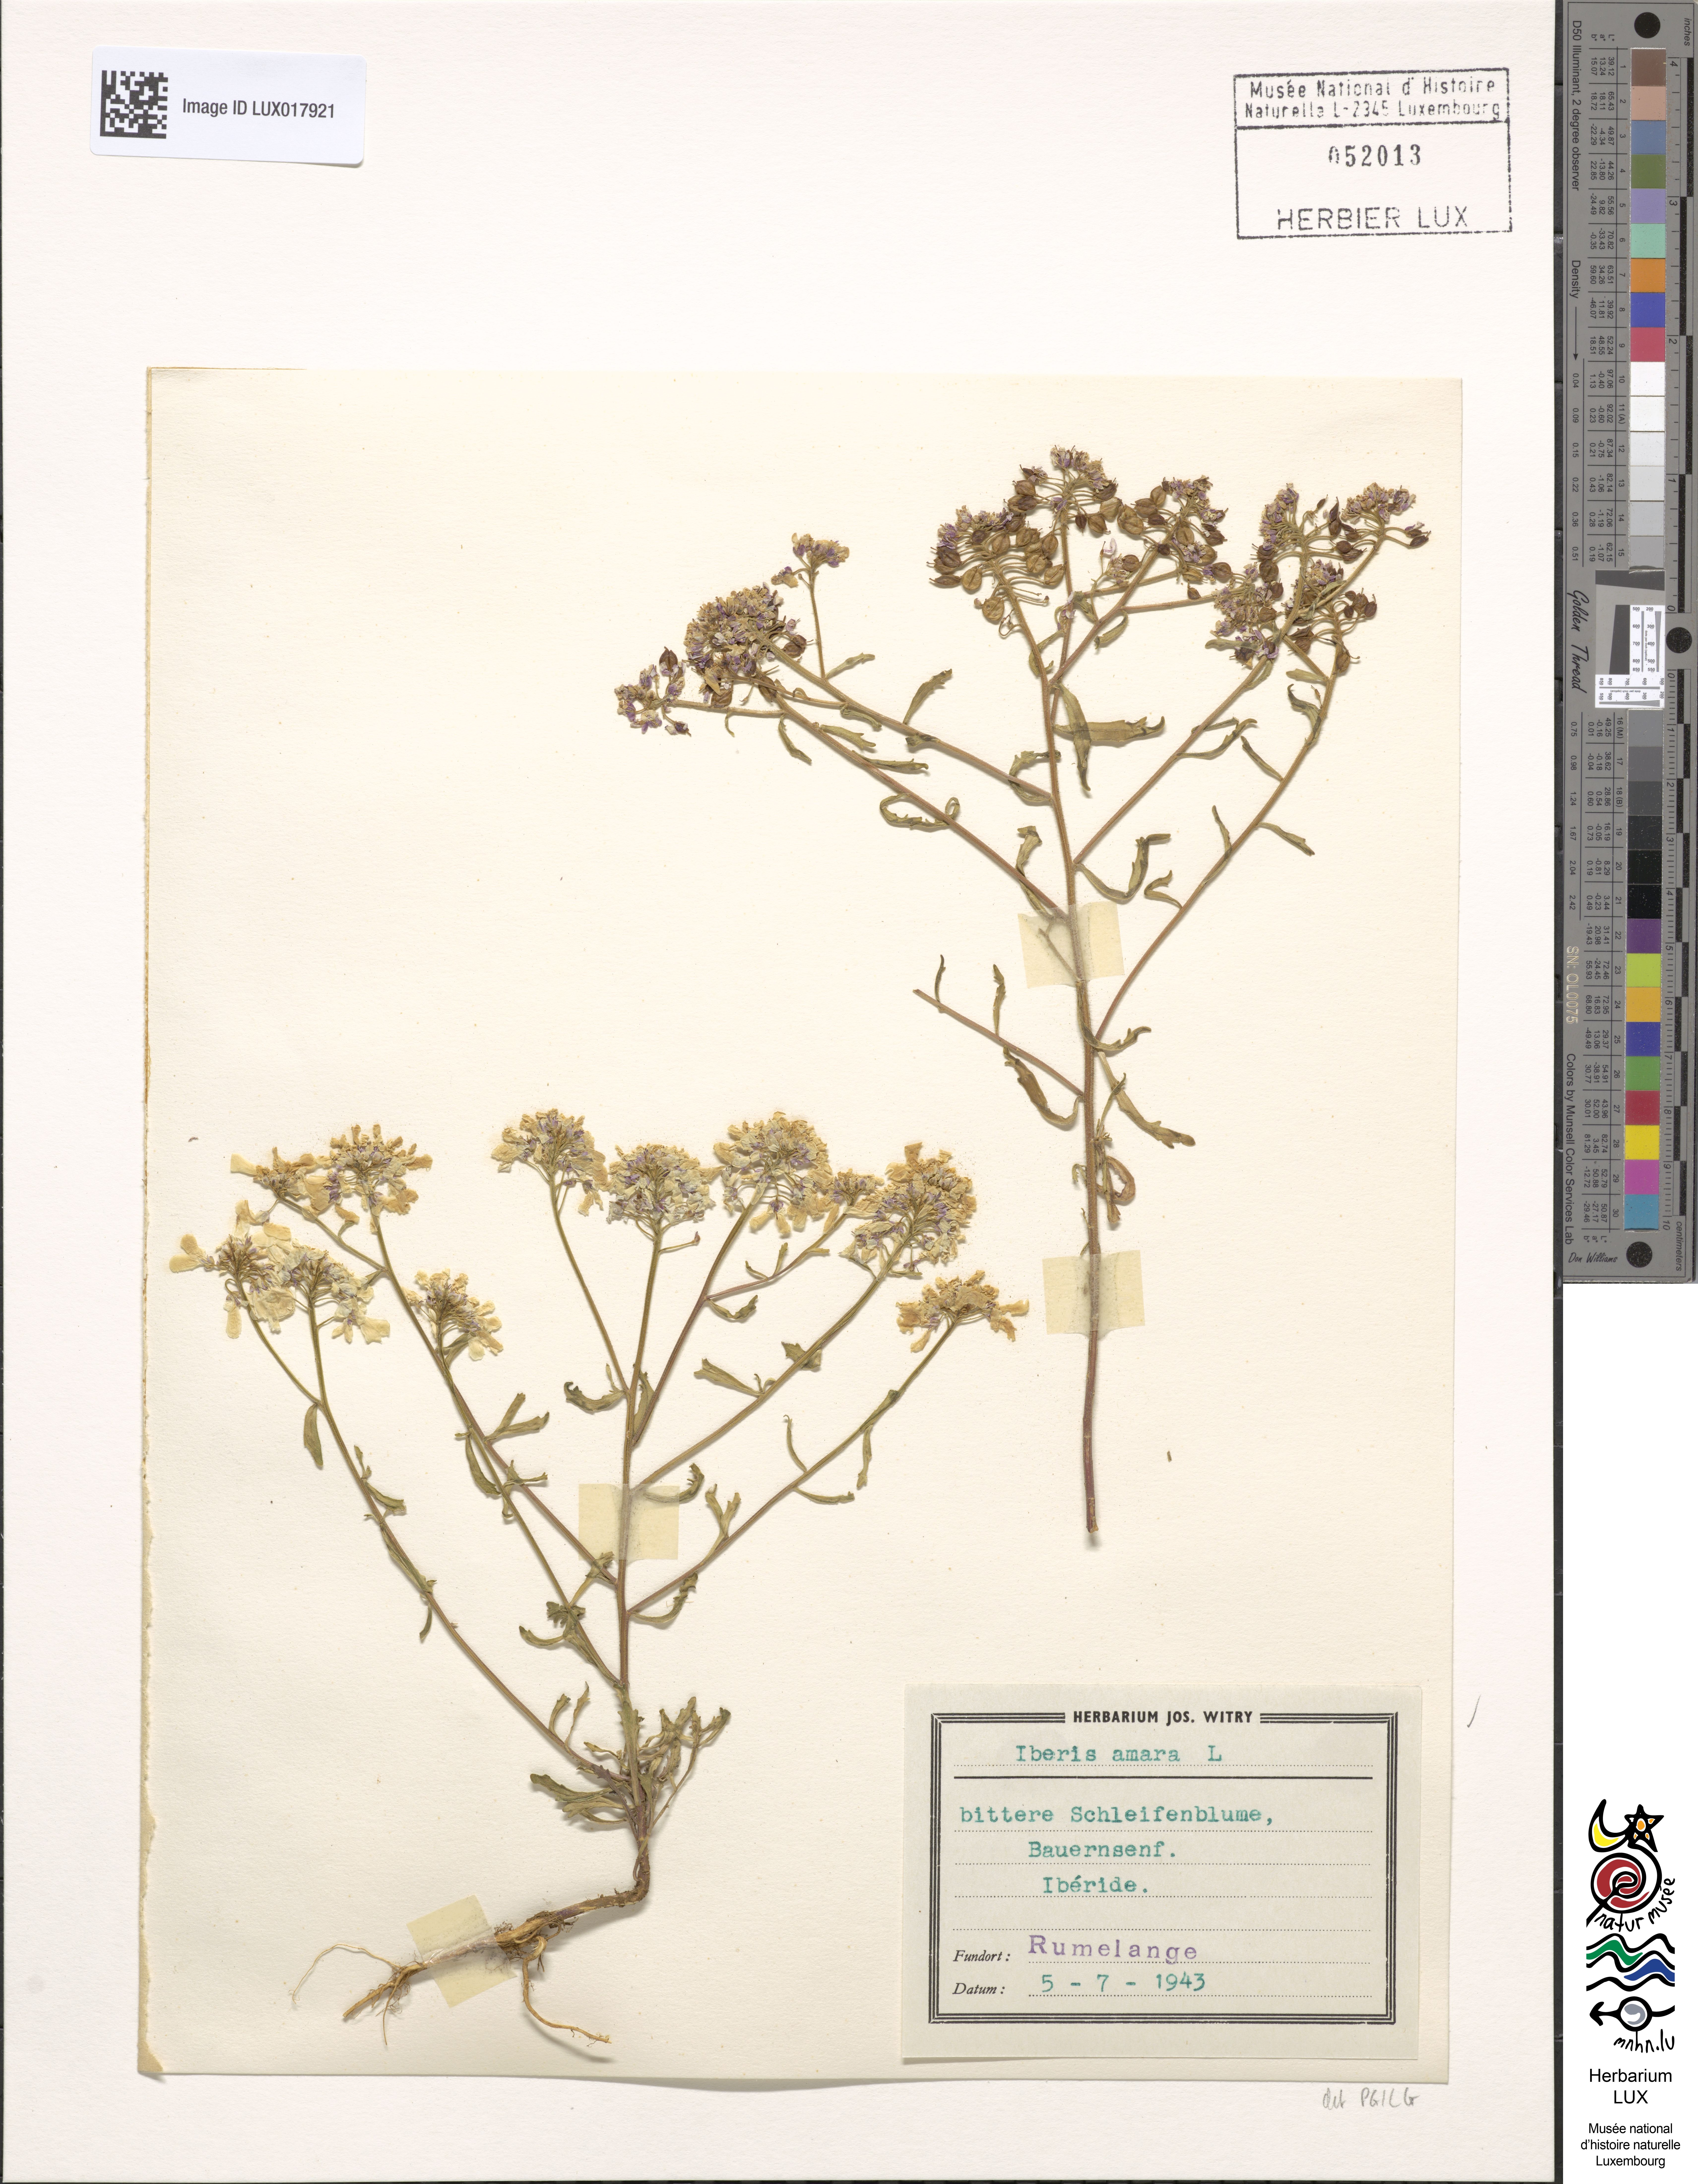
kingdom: Plantae
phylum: Tracheophyta
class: Magnoliopsida
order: Brassicales
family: Brassicaceae
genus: Iberis
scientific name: Iberis amara
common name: Annual candytuft
